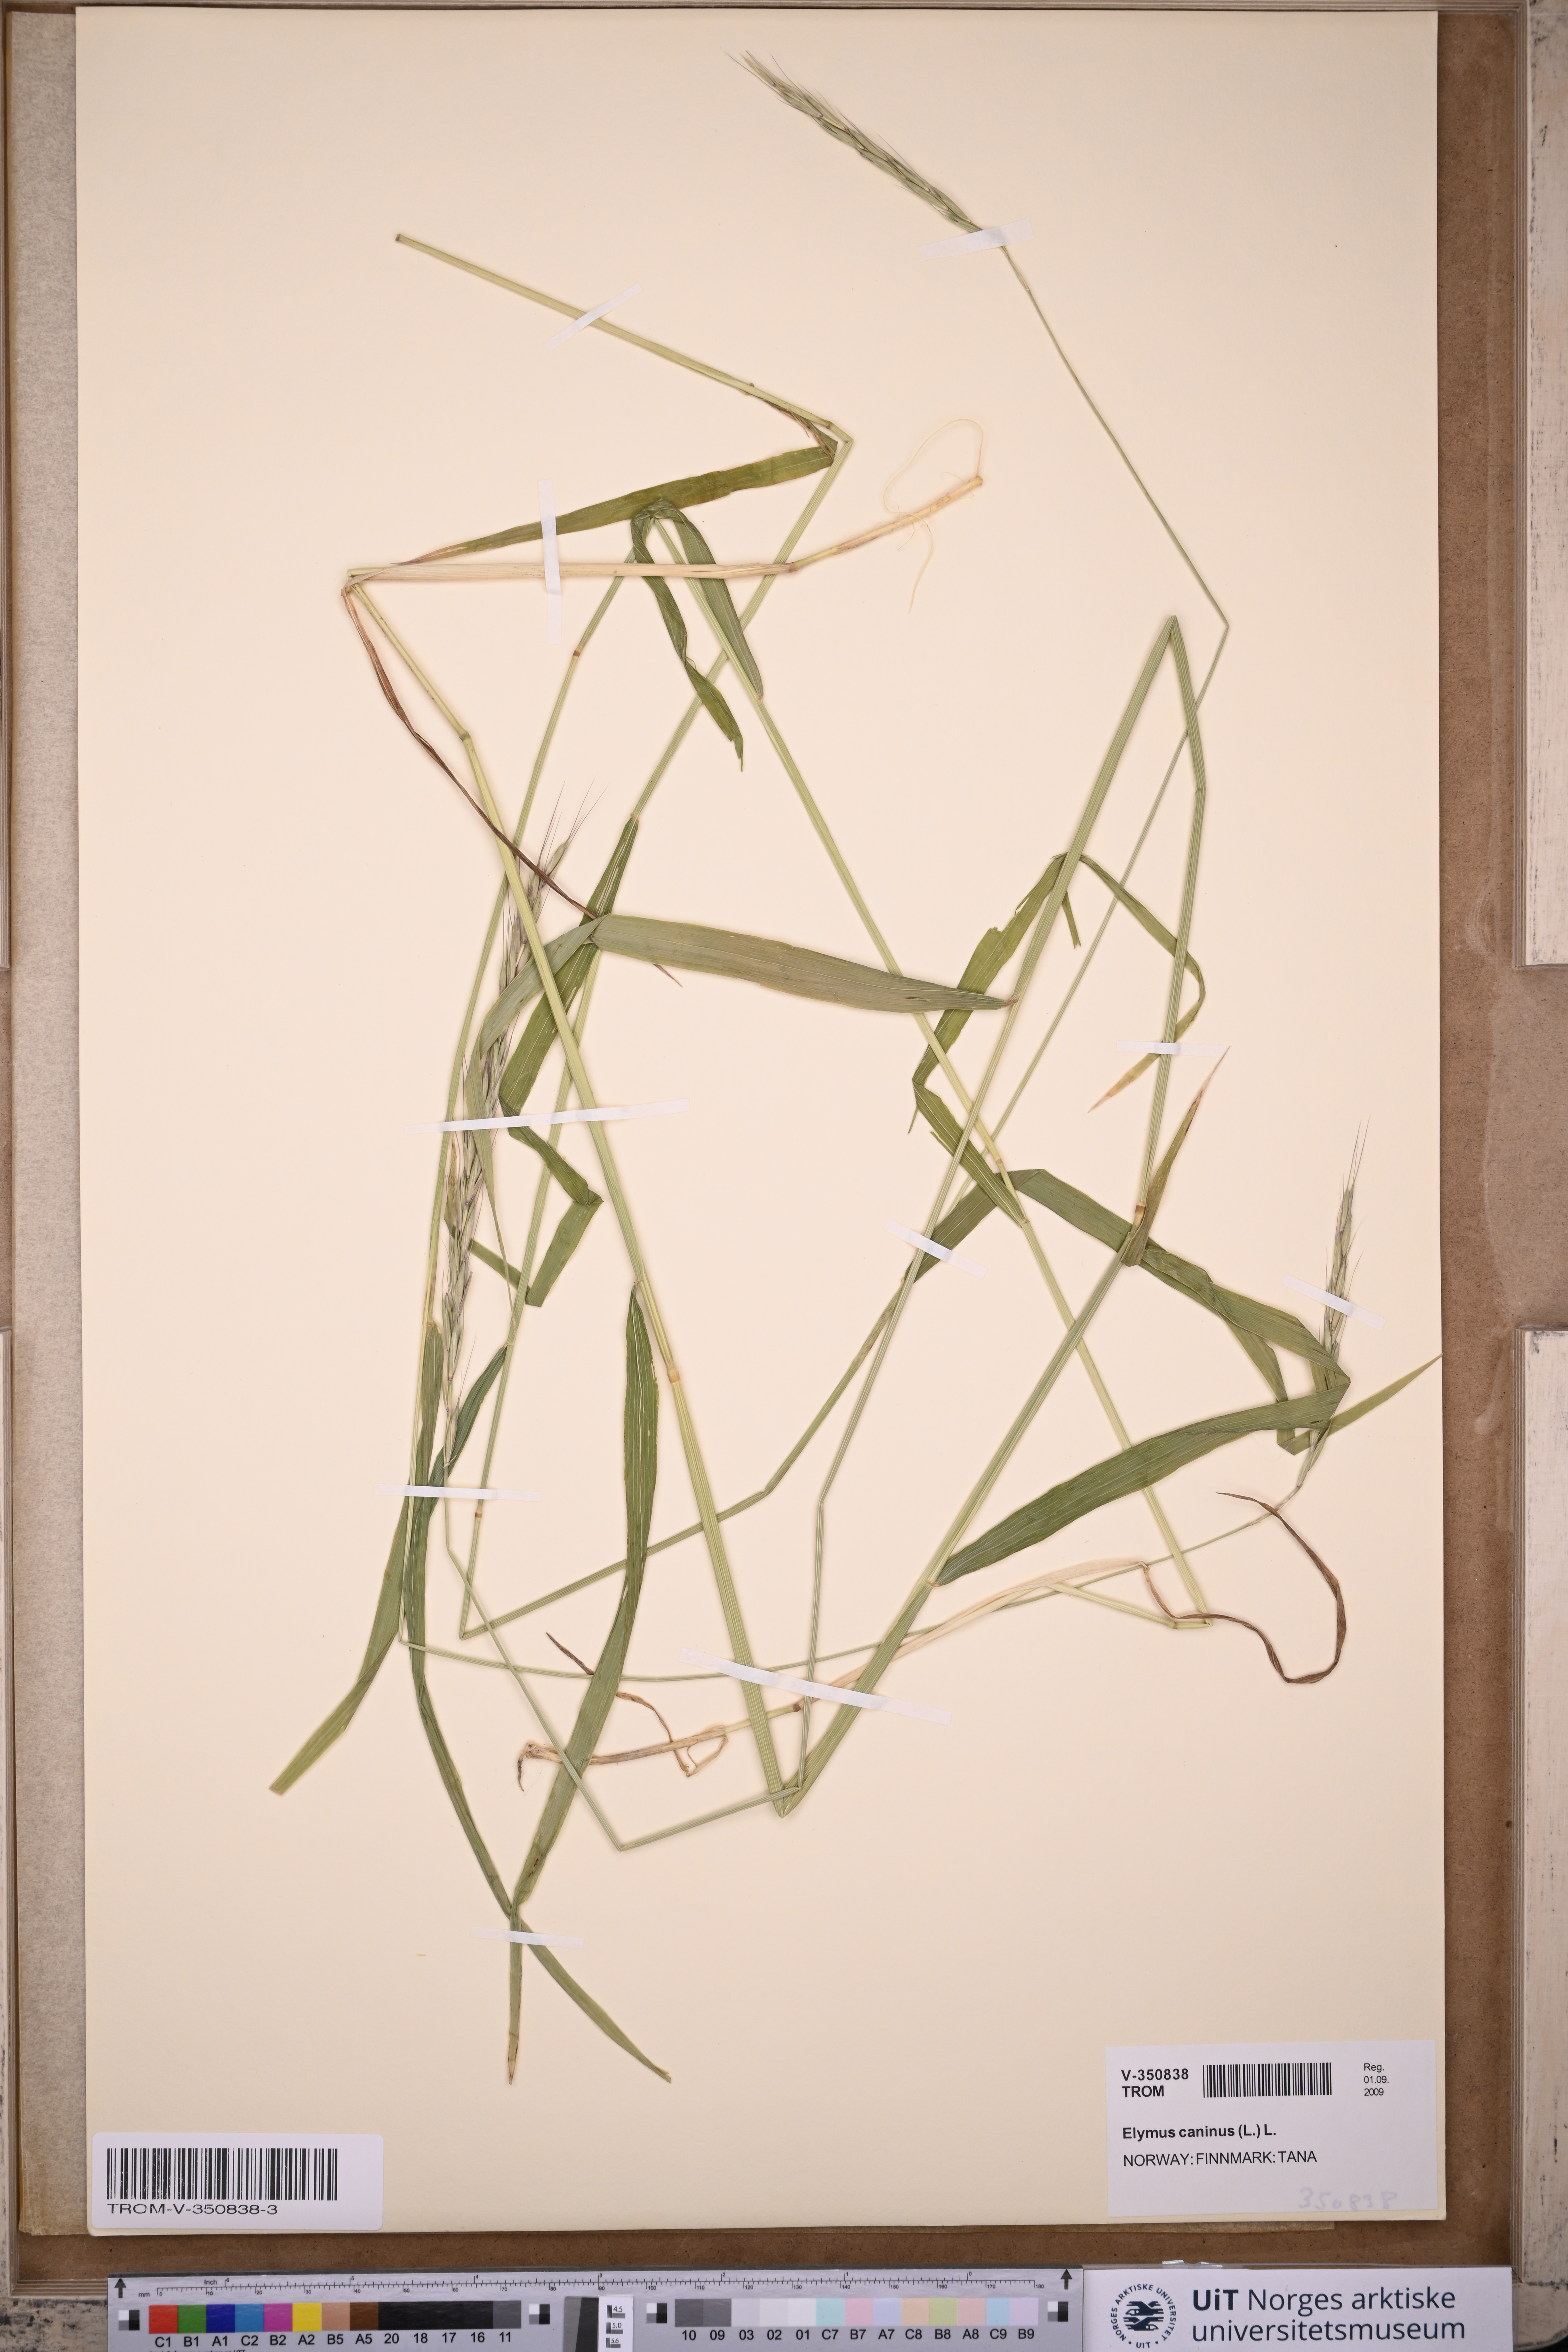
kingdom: Plantae
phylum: Tracheophyta
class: Liliopsida
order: Poales
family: Poaceae
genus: Elymus
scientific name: Elymus caninus
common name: Bearded couch
